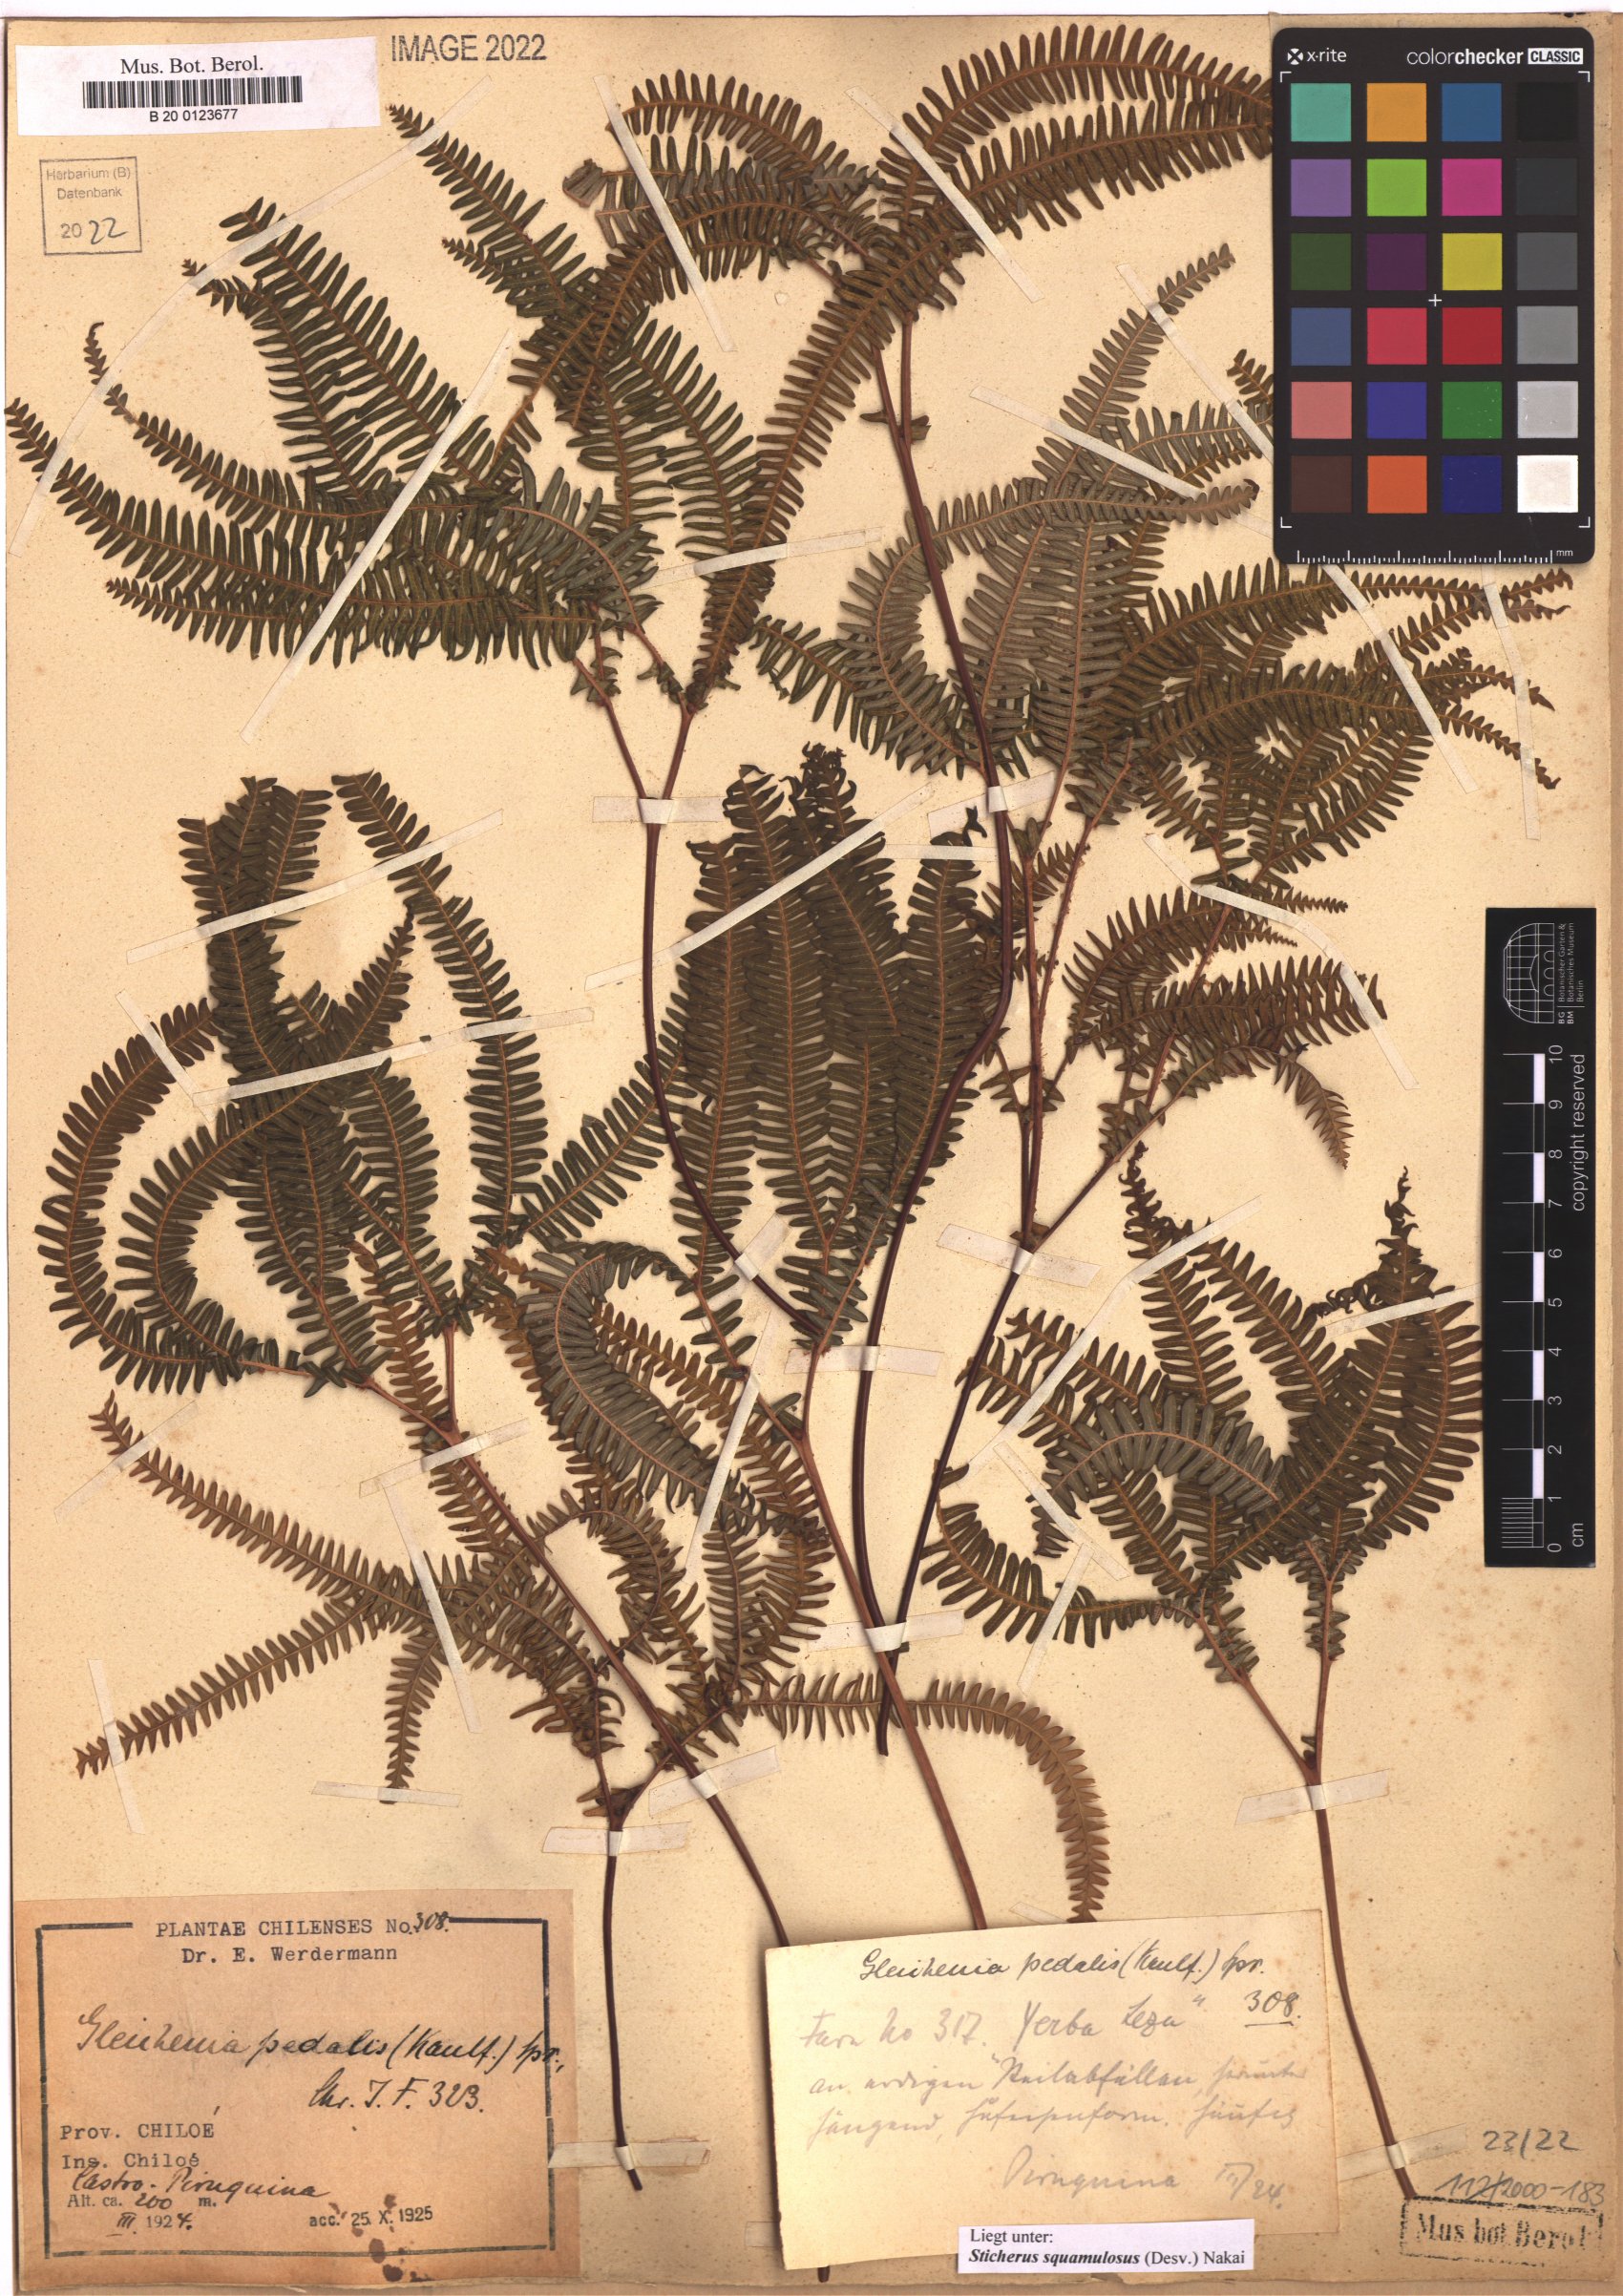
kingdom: Plantae
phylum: Tracheophyta
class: Polypodiopsida
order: Gleicheniales
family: Gleicheniaceae
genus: Sticherus
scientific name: Sticherus squamulosus
